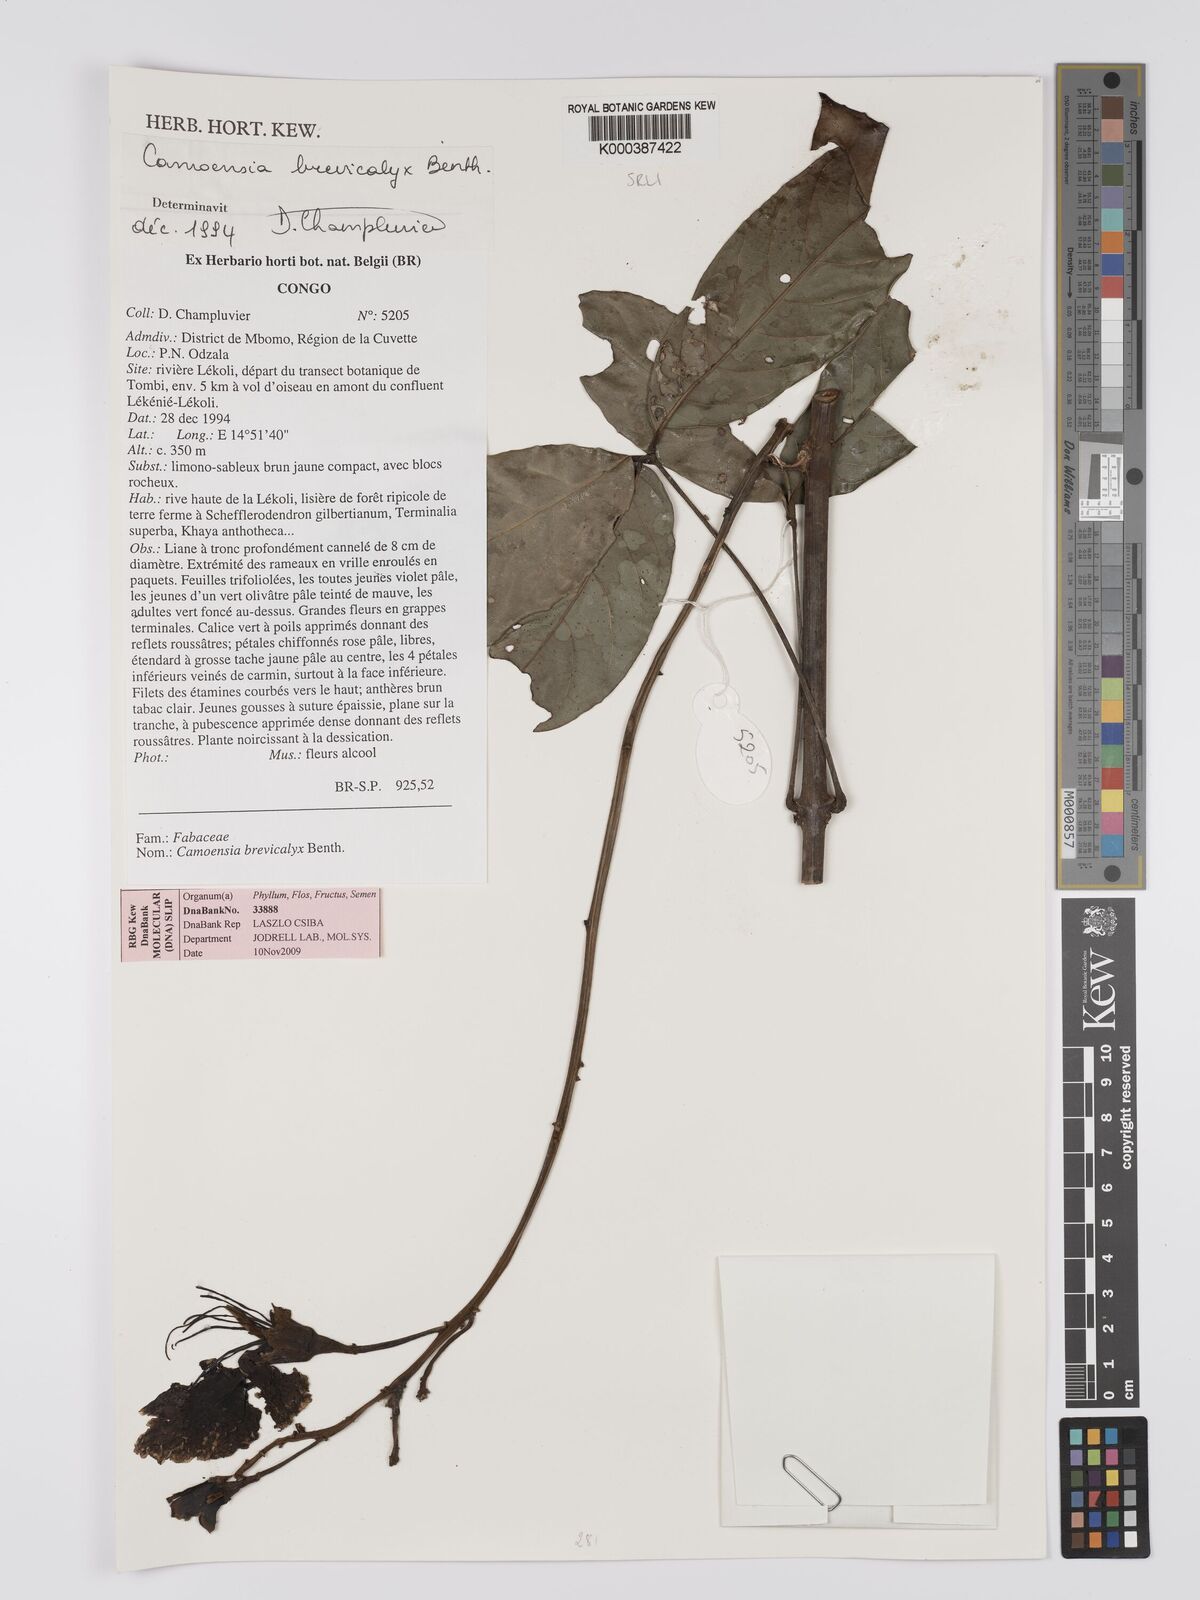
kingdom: Plantae
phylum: Tracheophyta
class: Magnoliopsida
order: Fabales
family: Fabaceae
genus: Camoensia
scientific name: Camoensia brevicalyx
